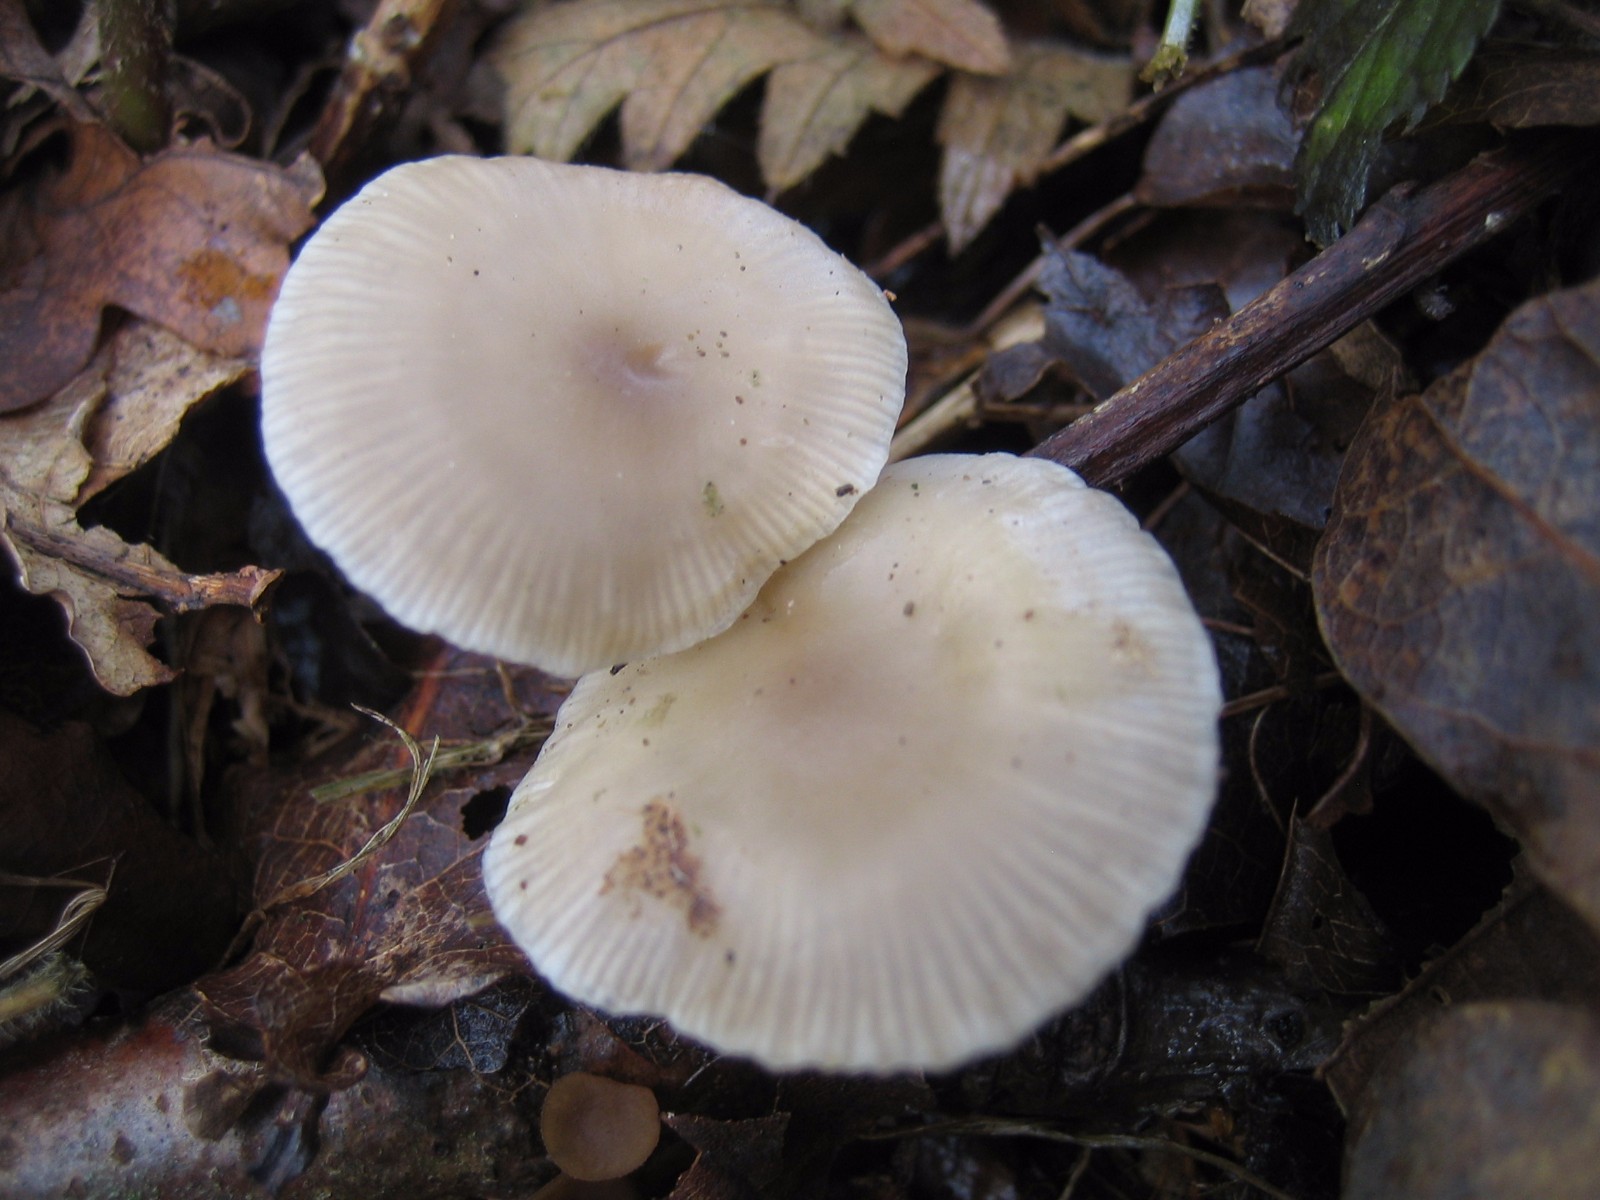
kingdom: Fungi
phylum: Basidiomycota
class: Agaricomycetes
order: Agaricales
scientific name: Agaricales
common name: champignonordenen
